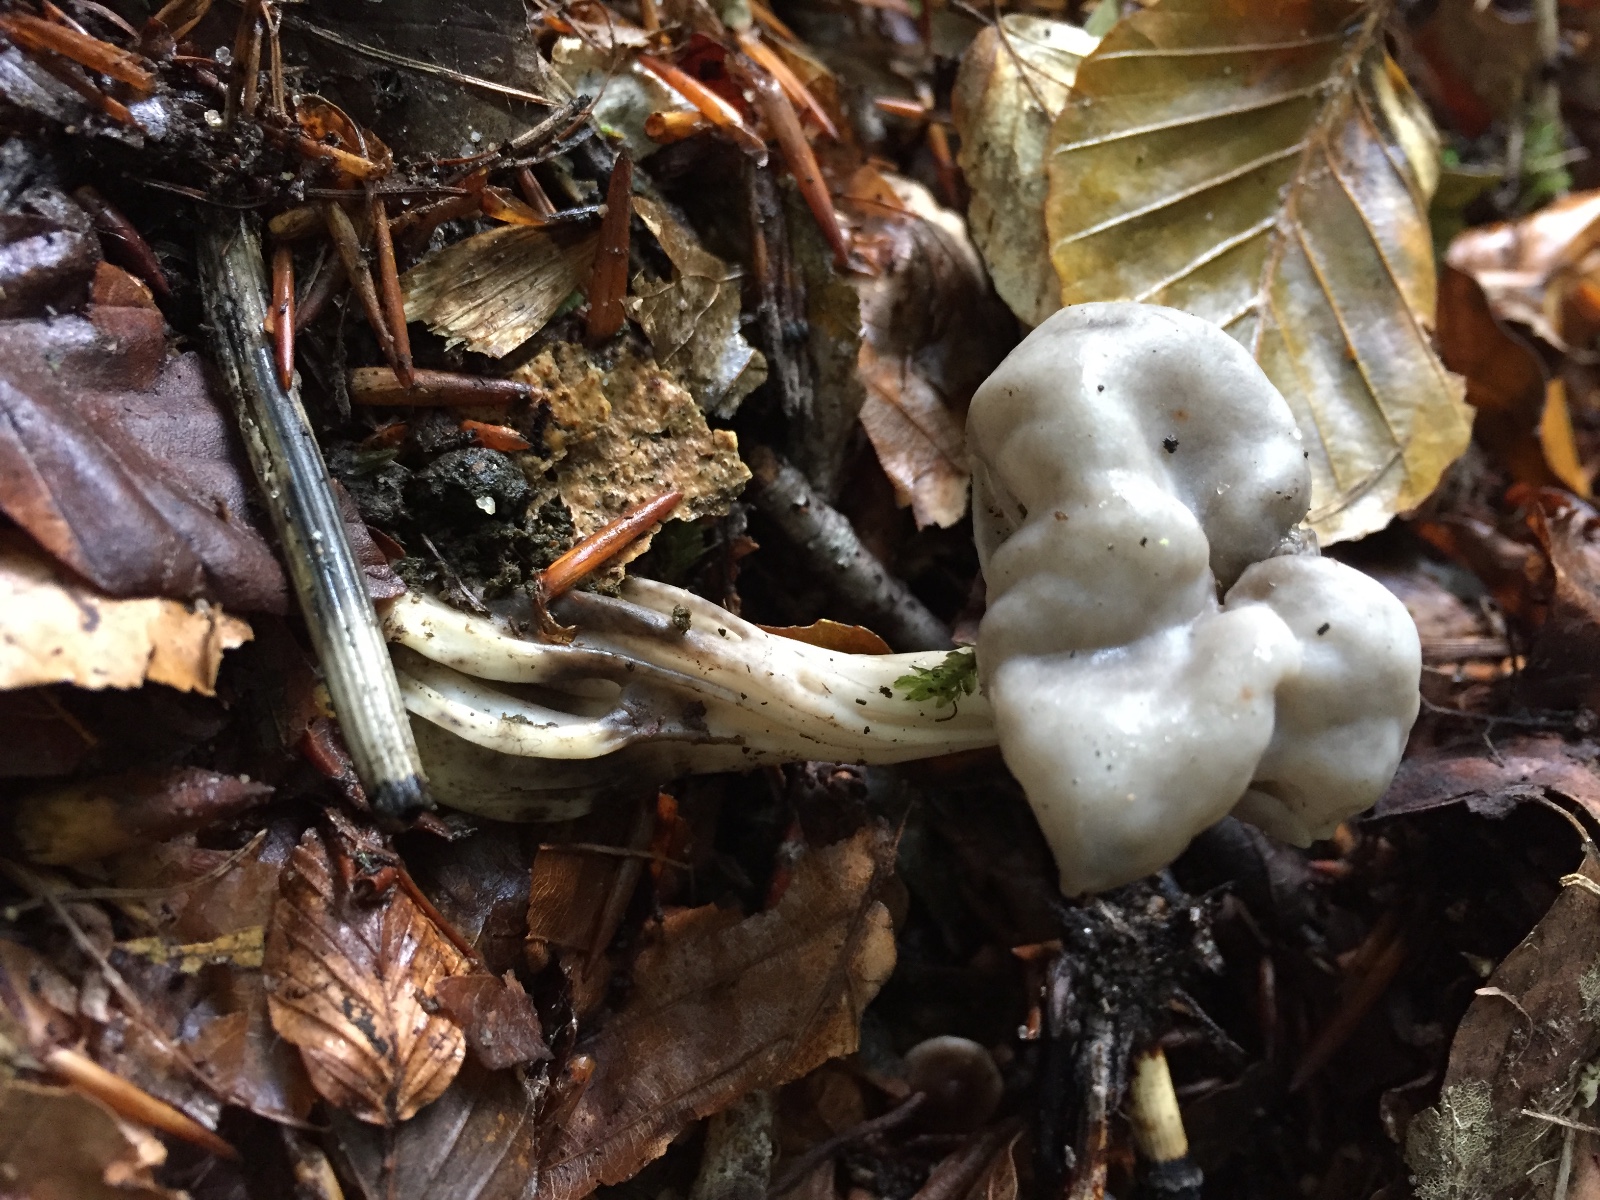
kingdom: Fungi
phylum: Ascomycota
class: Pezizomycetes
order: Pezizales
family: Helvellaceae
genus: Helvella
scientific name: Helvella lacunosa
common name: grubet foldhat
